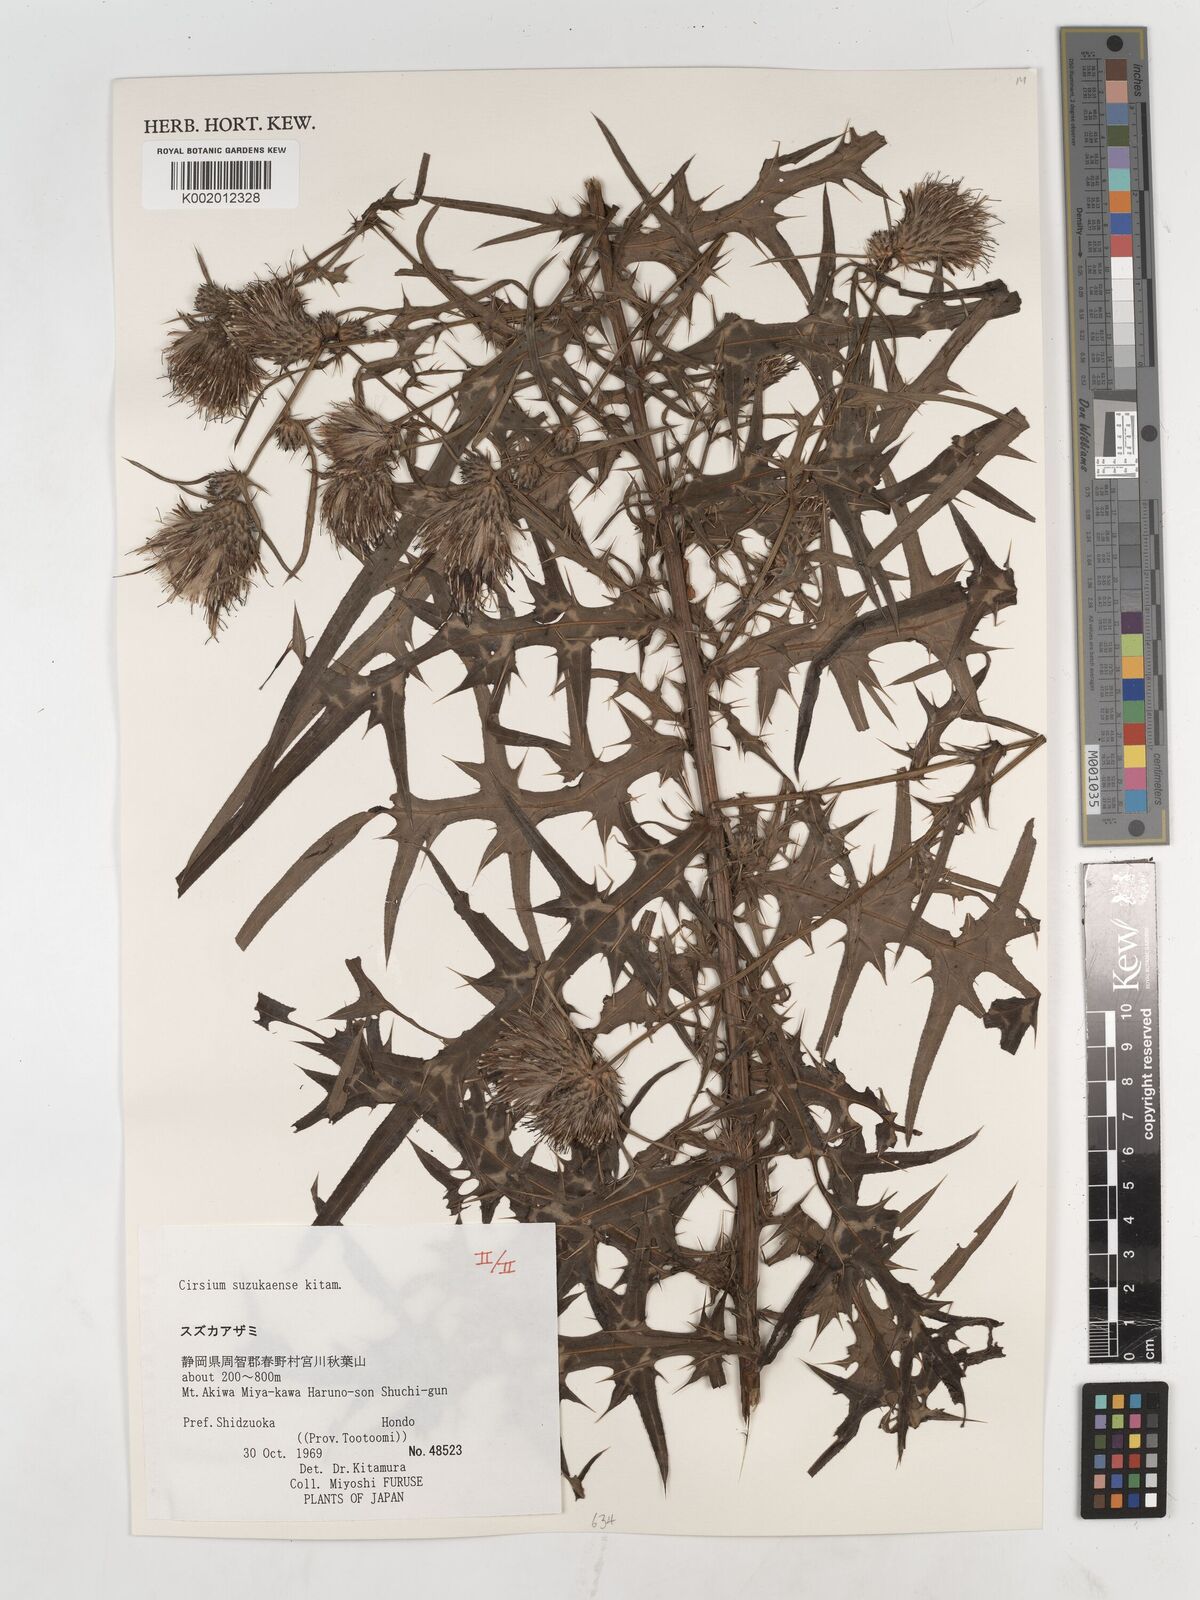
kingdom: Plantae
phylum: Tracheophyta
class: Magnoliopsida
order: Asterales
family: Asteraceae
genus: Cirsium
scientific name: Cirsium suzukaense
